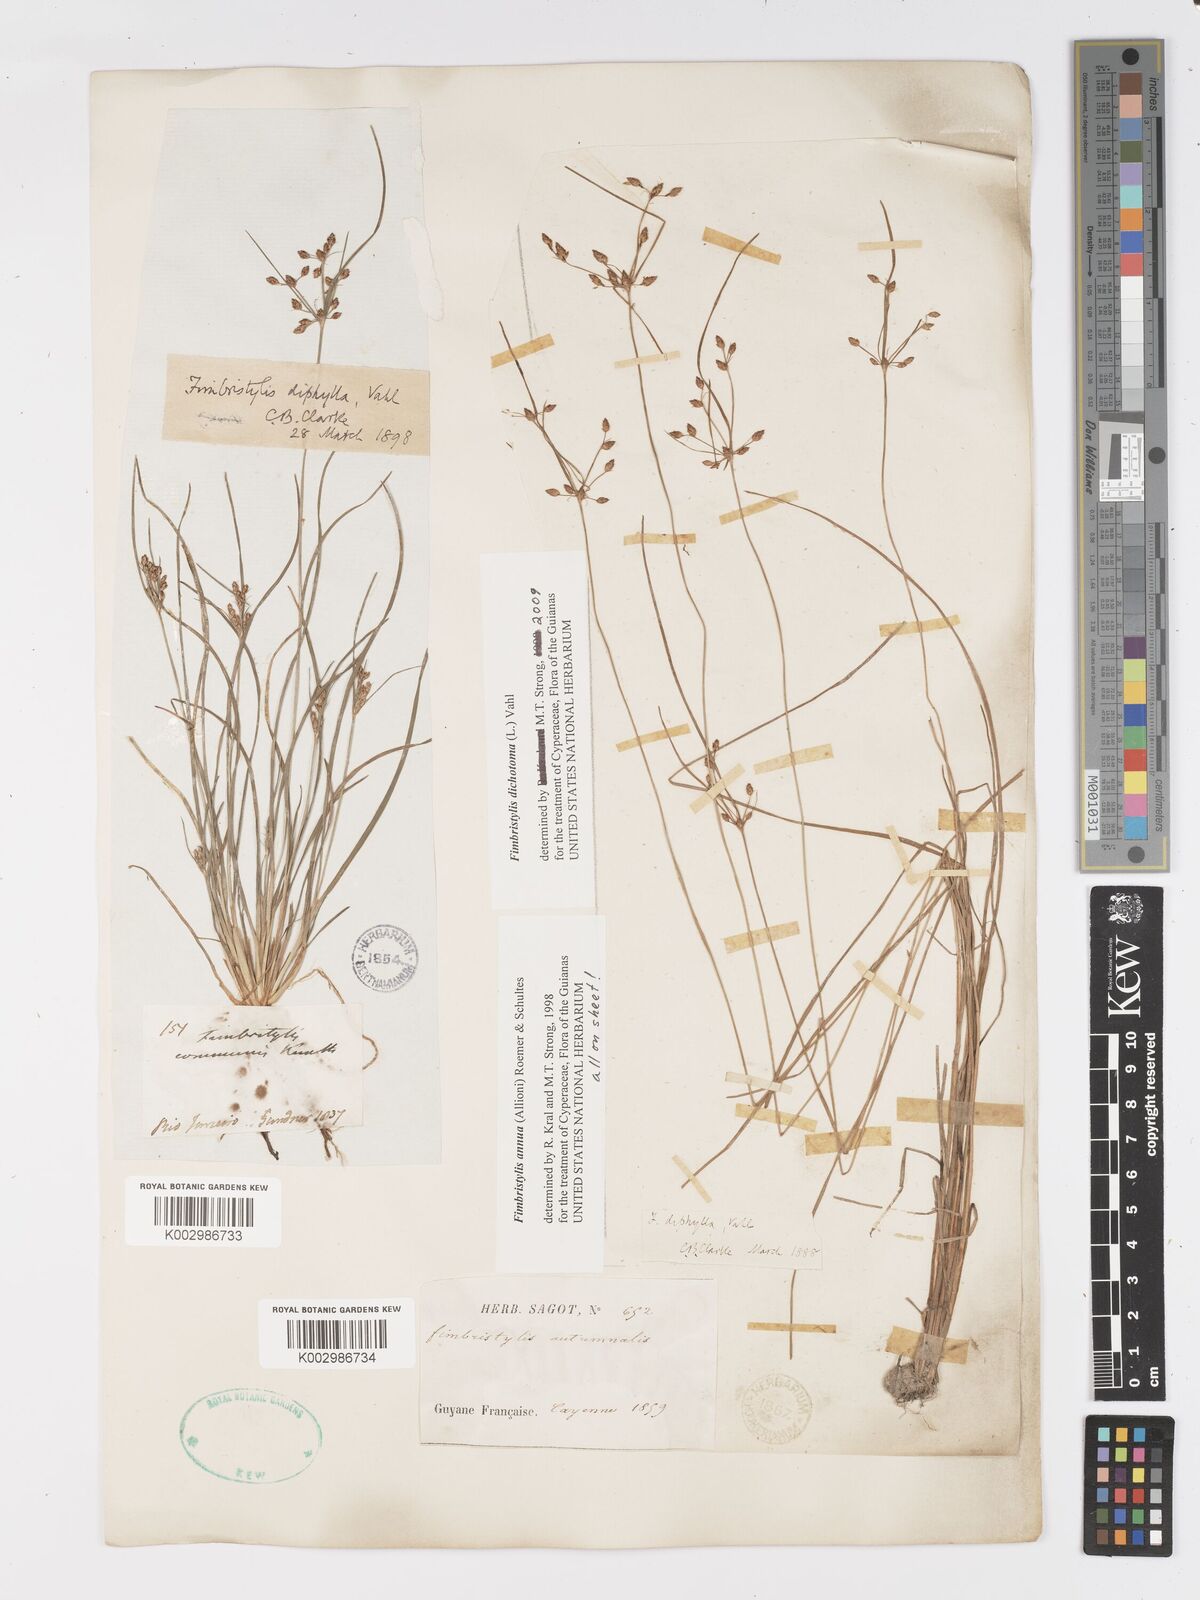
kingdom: Plantae
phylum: Tracheophyta
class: Liliopsida
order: Poales
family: Cyperaceae
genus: Fimbristylis
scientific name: Fimbristylis dichotoma
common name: Forked fimbry
